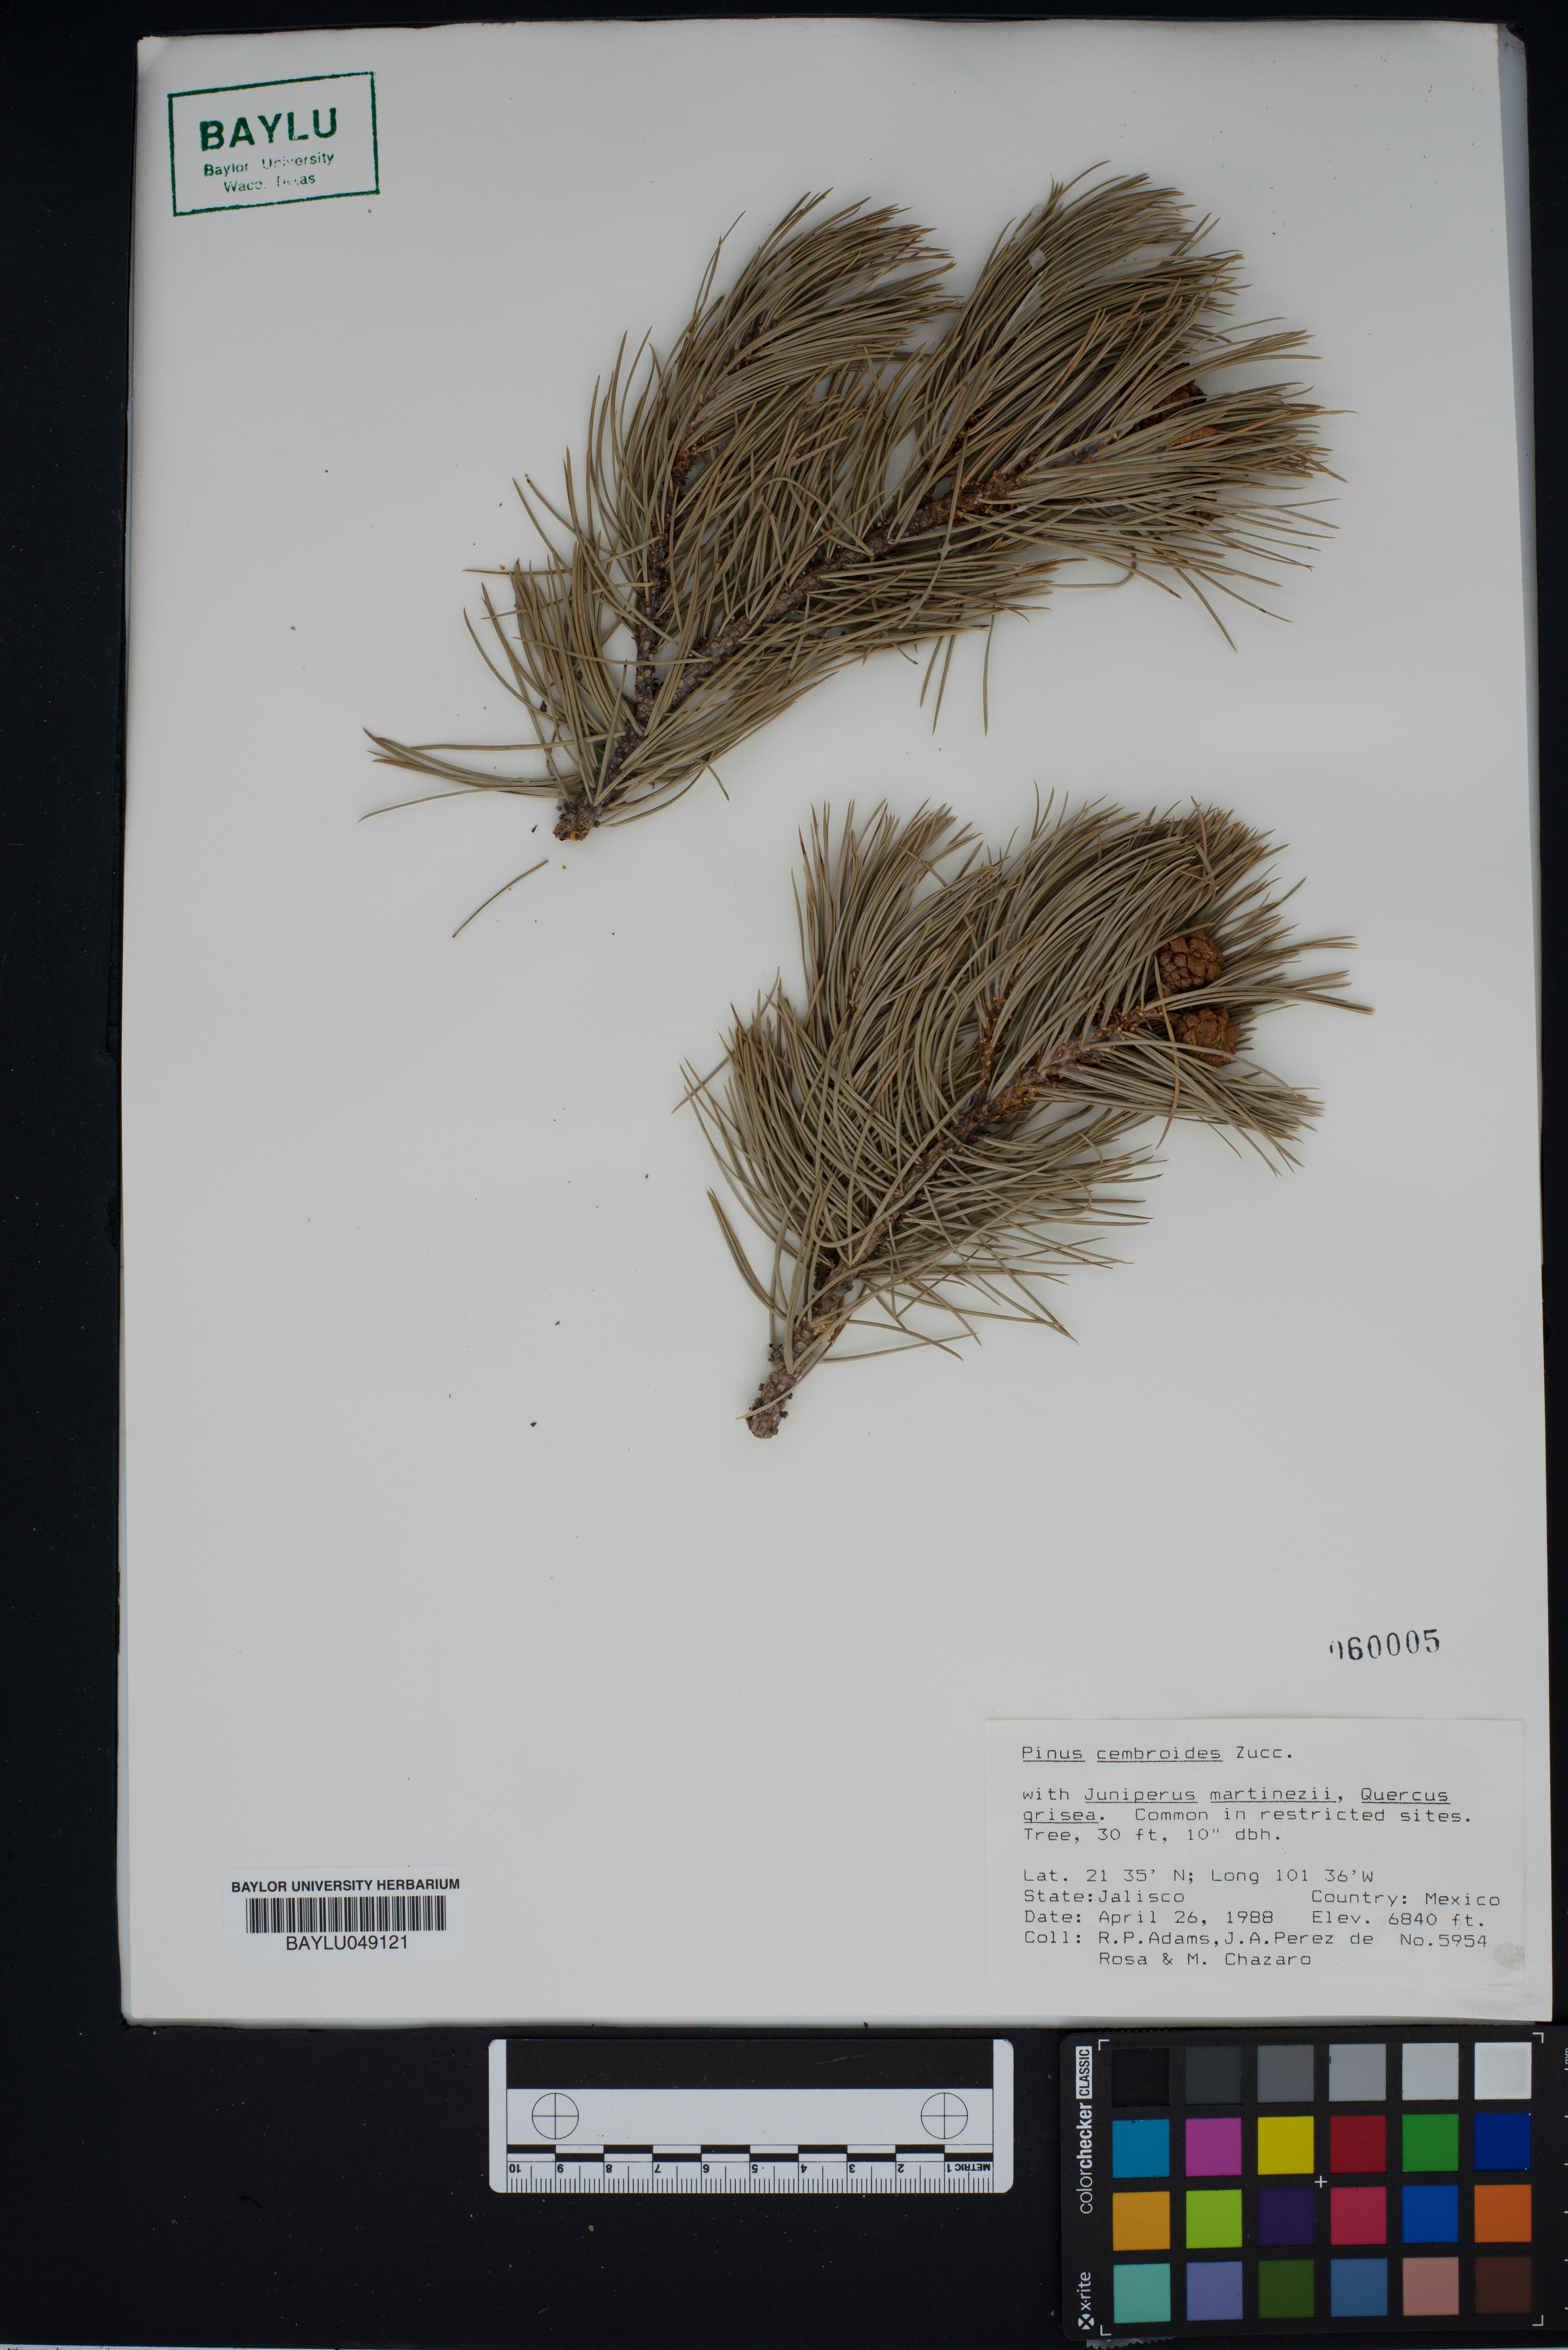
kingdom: Plantae
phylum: Tracheophyta
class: Pinopsida
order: Pinales
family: Pinaceae
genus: Pinus
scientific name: Pinus cembroides
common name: Mexican nut pine
